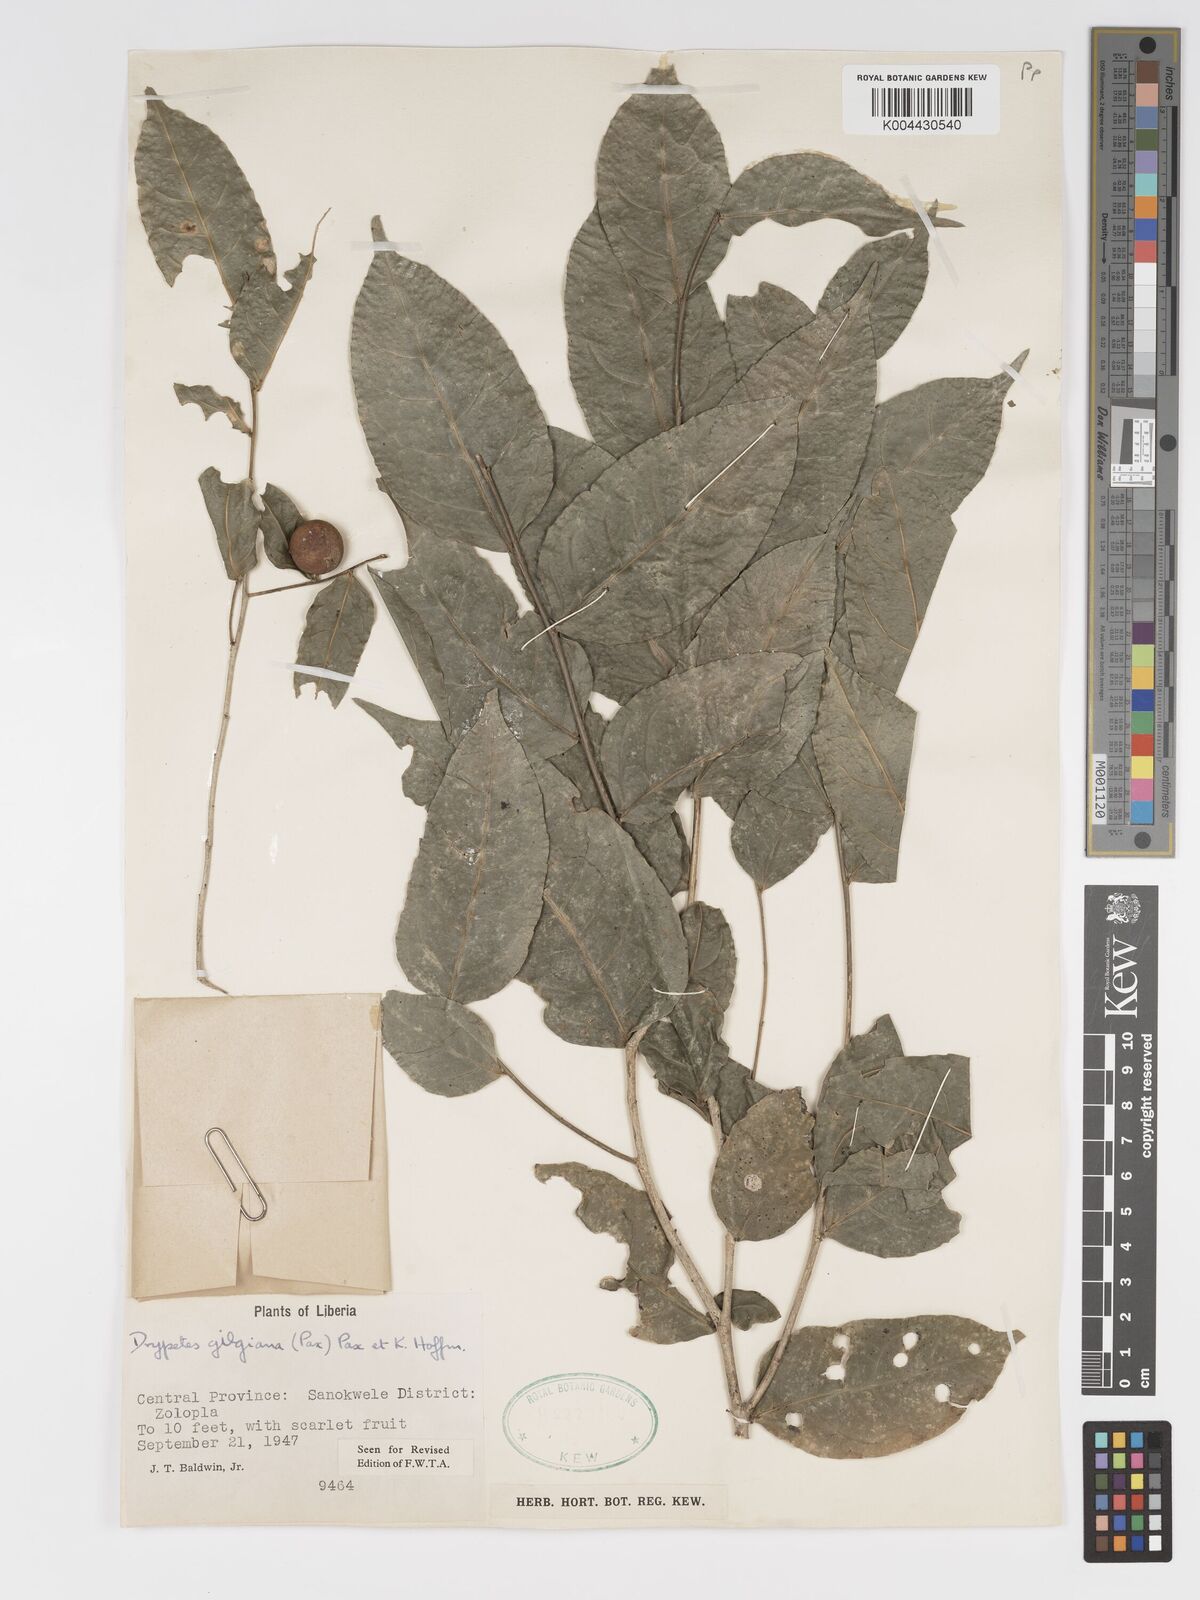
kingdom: Plantae
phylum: Tracheophyta
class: Magnoliopsida
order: Malpighiales
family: Putranjivaceae
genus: Drypetes
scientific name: Drypetes gilgiana
